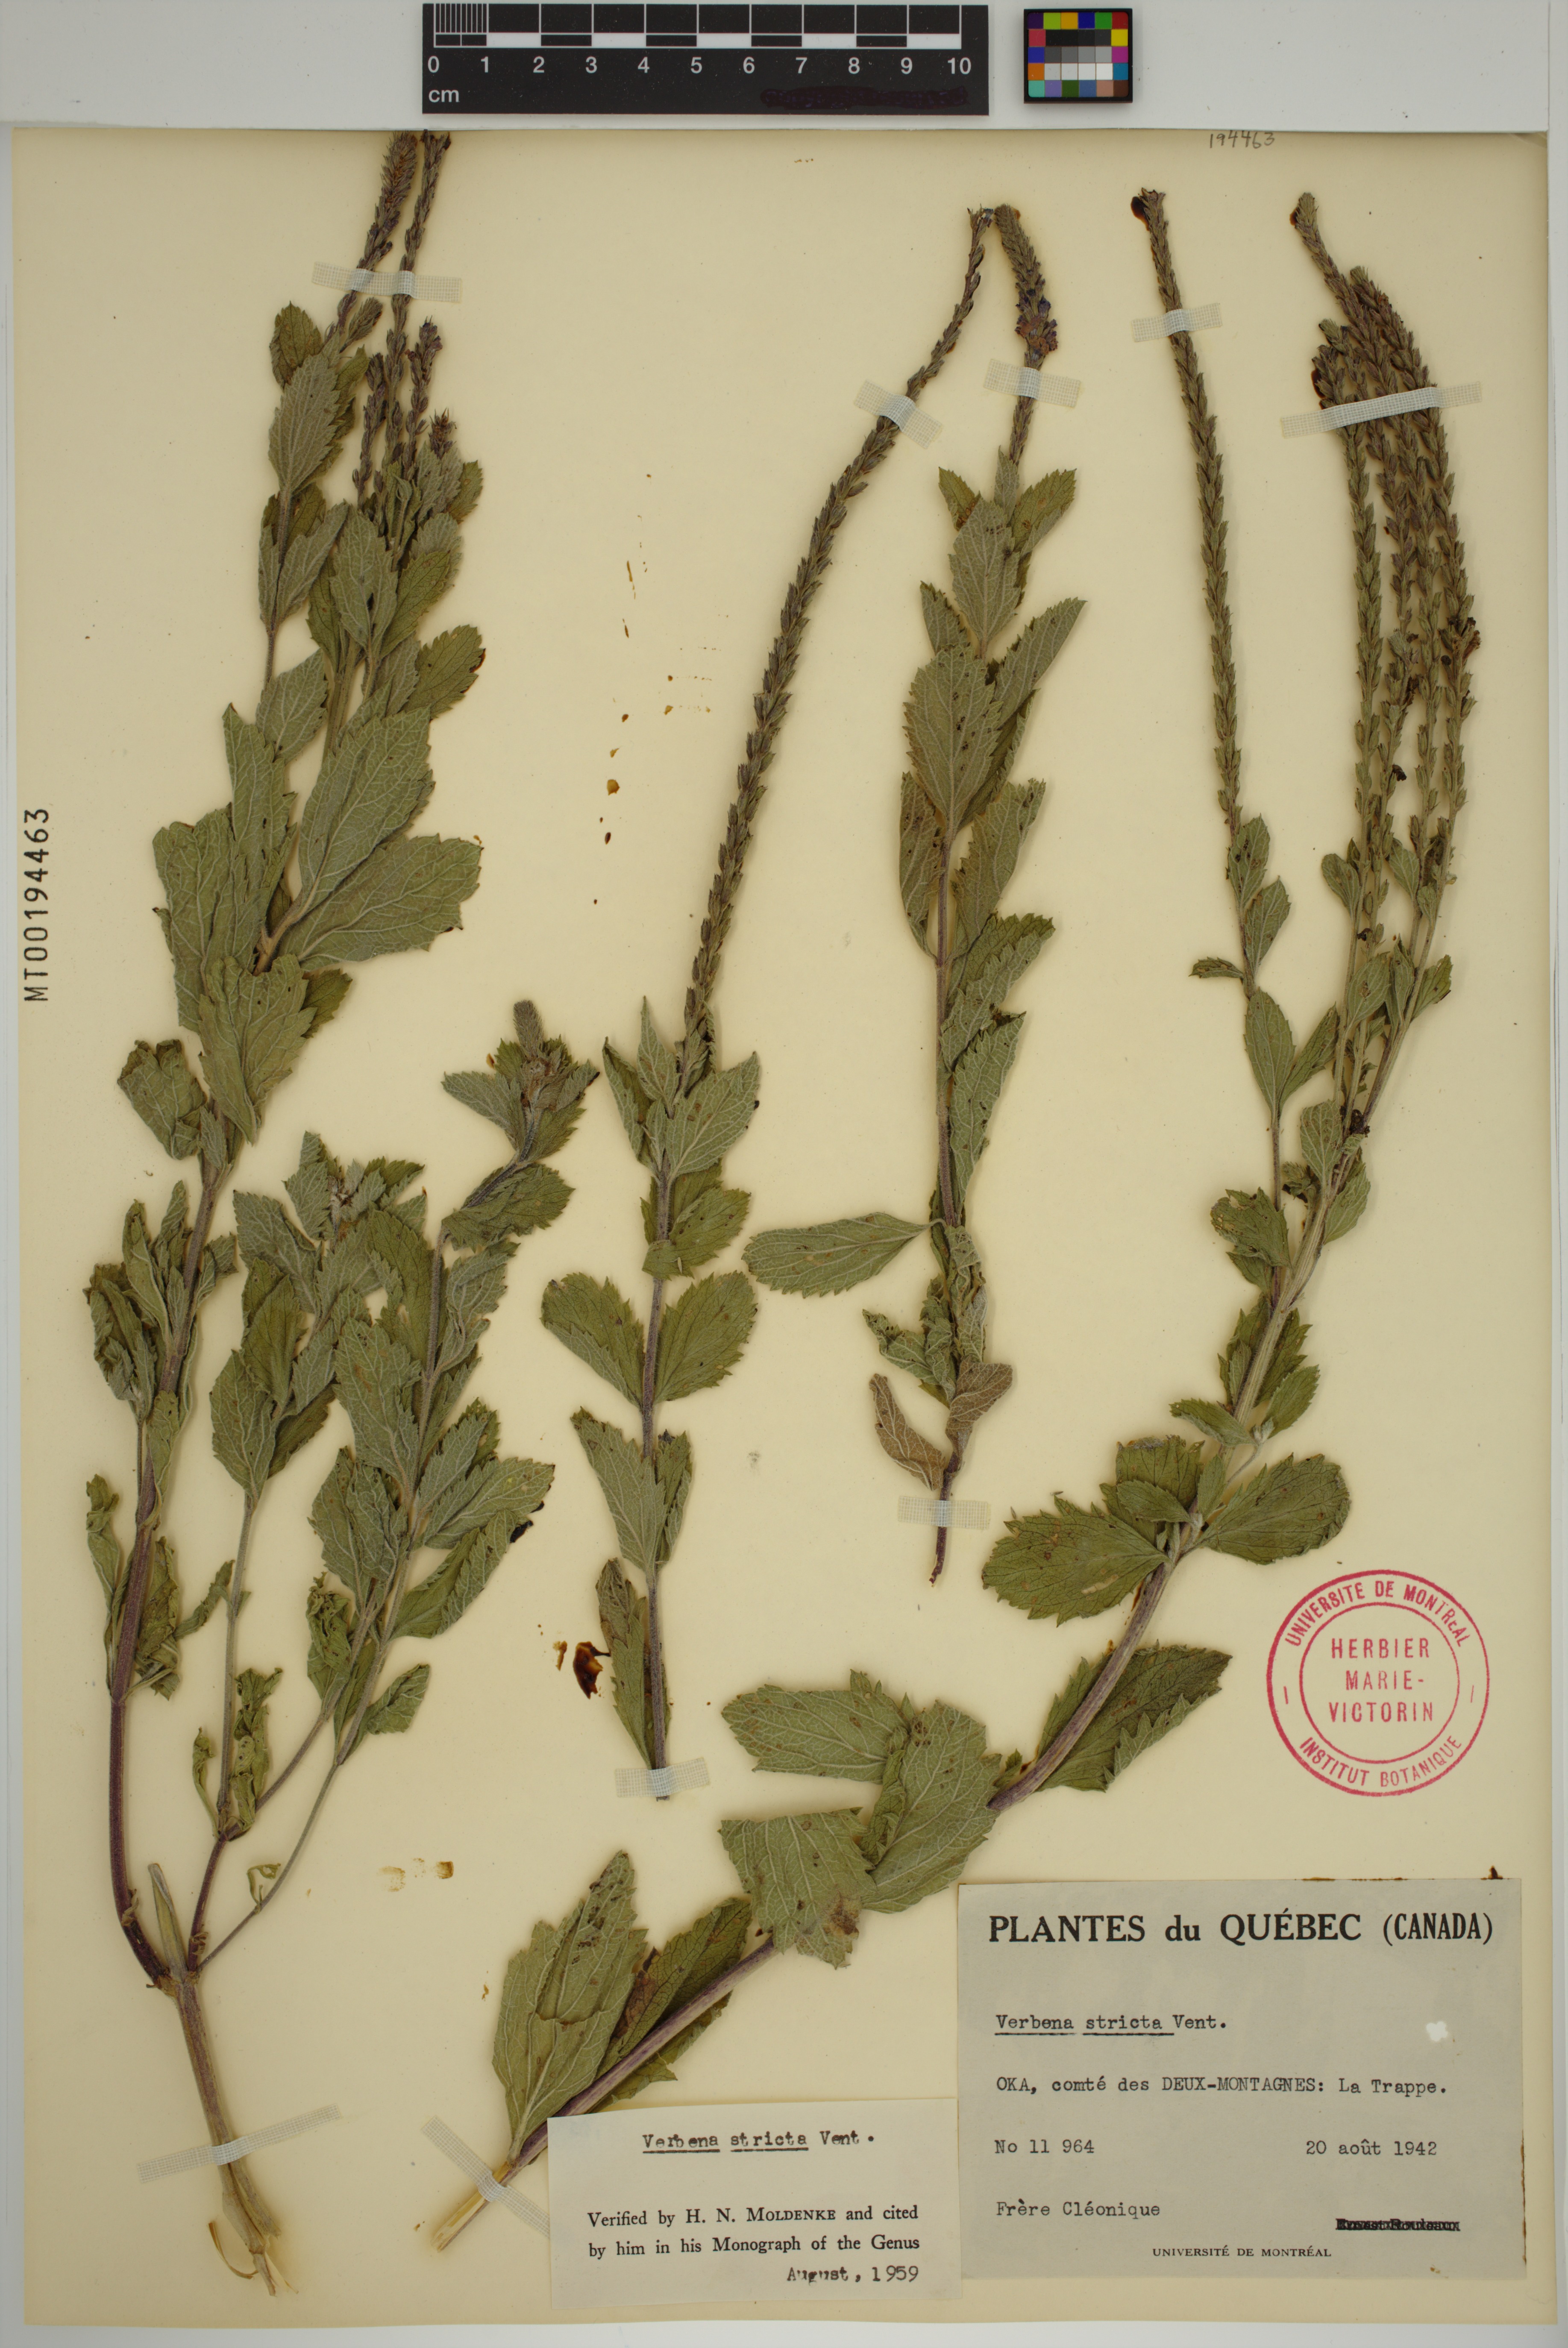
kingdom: Plantae
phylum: Tracheophyta
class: Magnoliopsida
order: Lamiales
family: Verbenaceae
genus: Verbena
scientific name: Verbena stricta
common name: Hoary vervain
